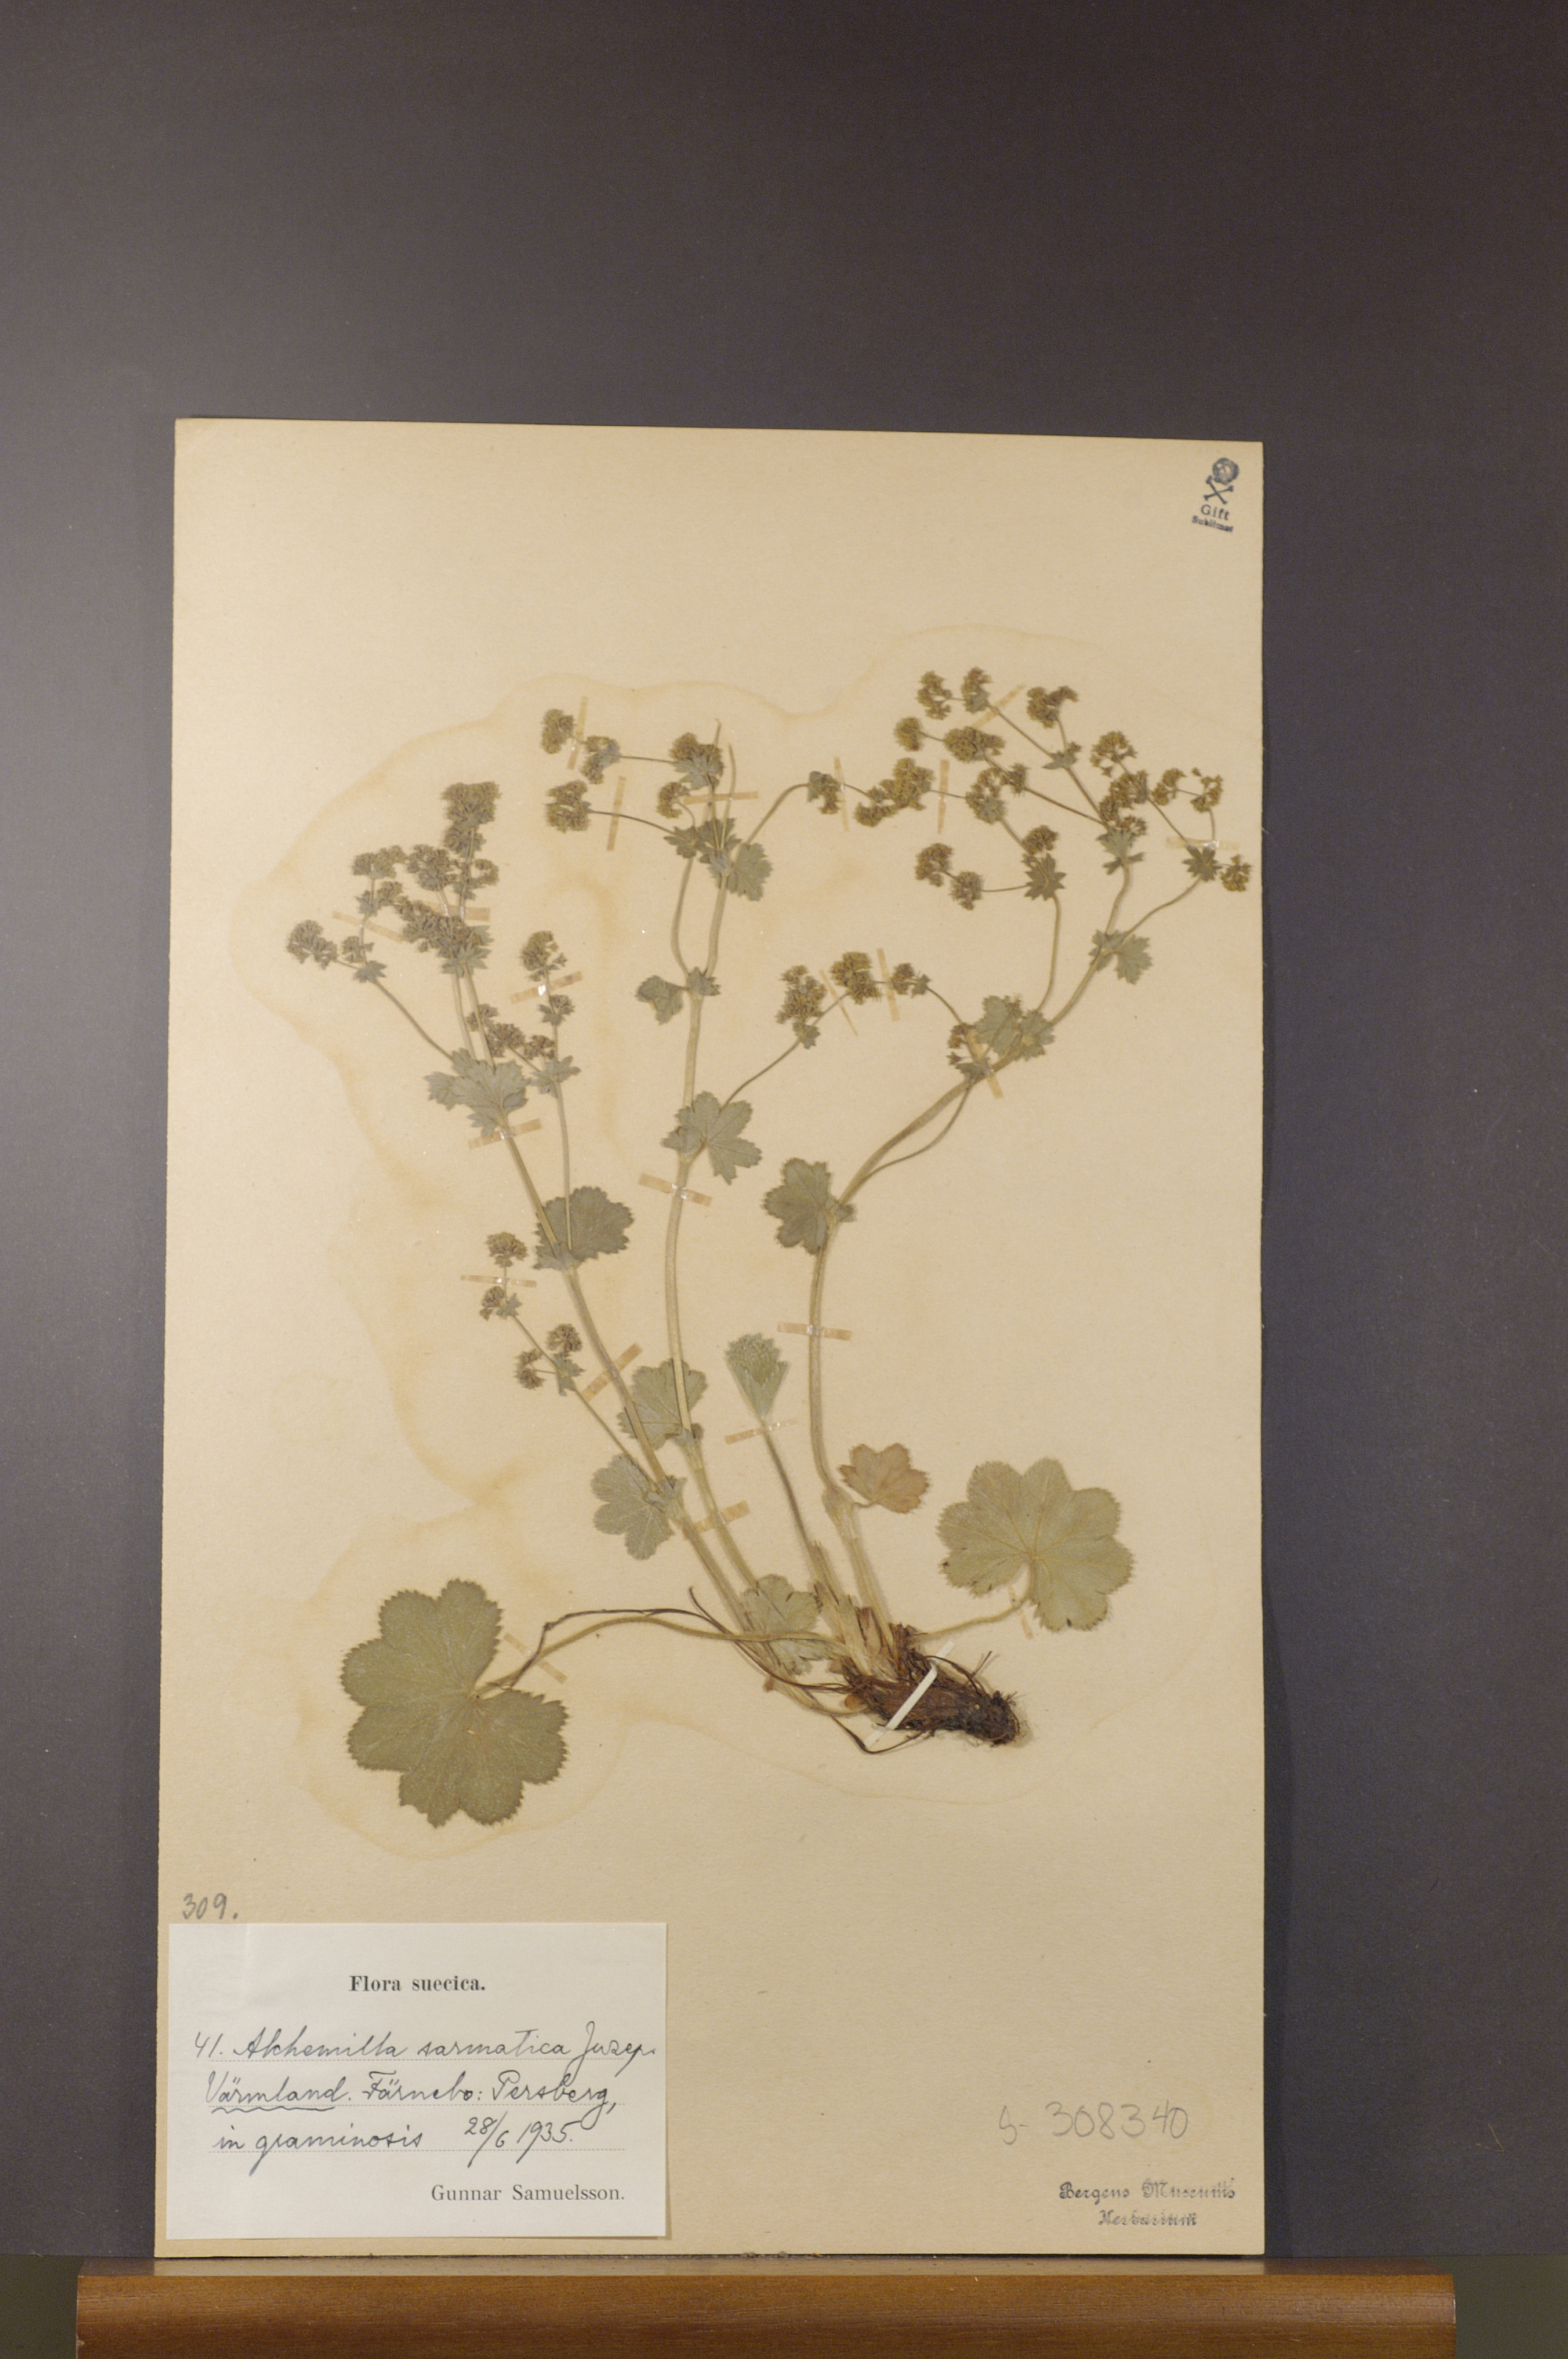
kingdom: Plantae
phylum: Tracheophyta
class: Magnoliopsida
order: Rosales
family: Rosaceae
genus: Alchemilla
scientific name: Alchemilla sarmatica
